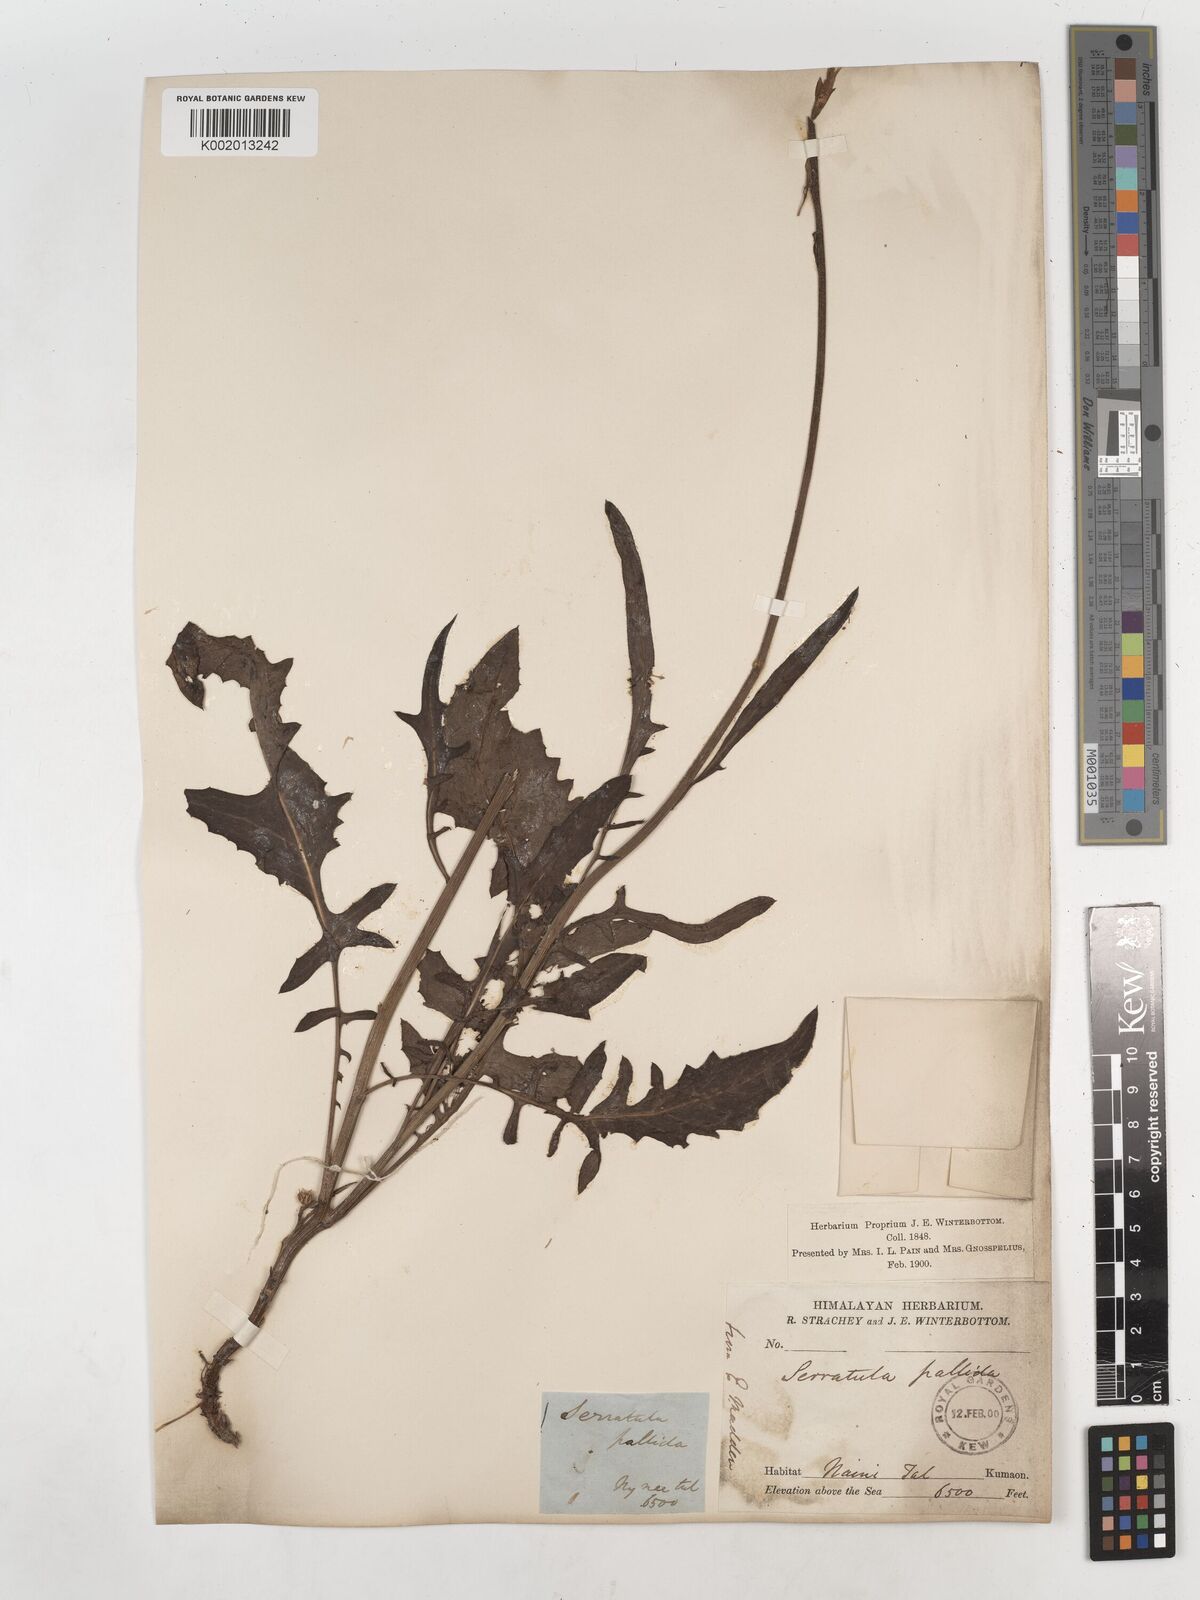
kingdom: Plantae
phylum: Tracheophyta
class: Magnoliopsida
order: Asterales
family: Asteraceae
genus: Klasea
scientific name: Klasea pallida
